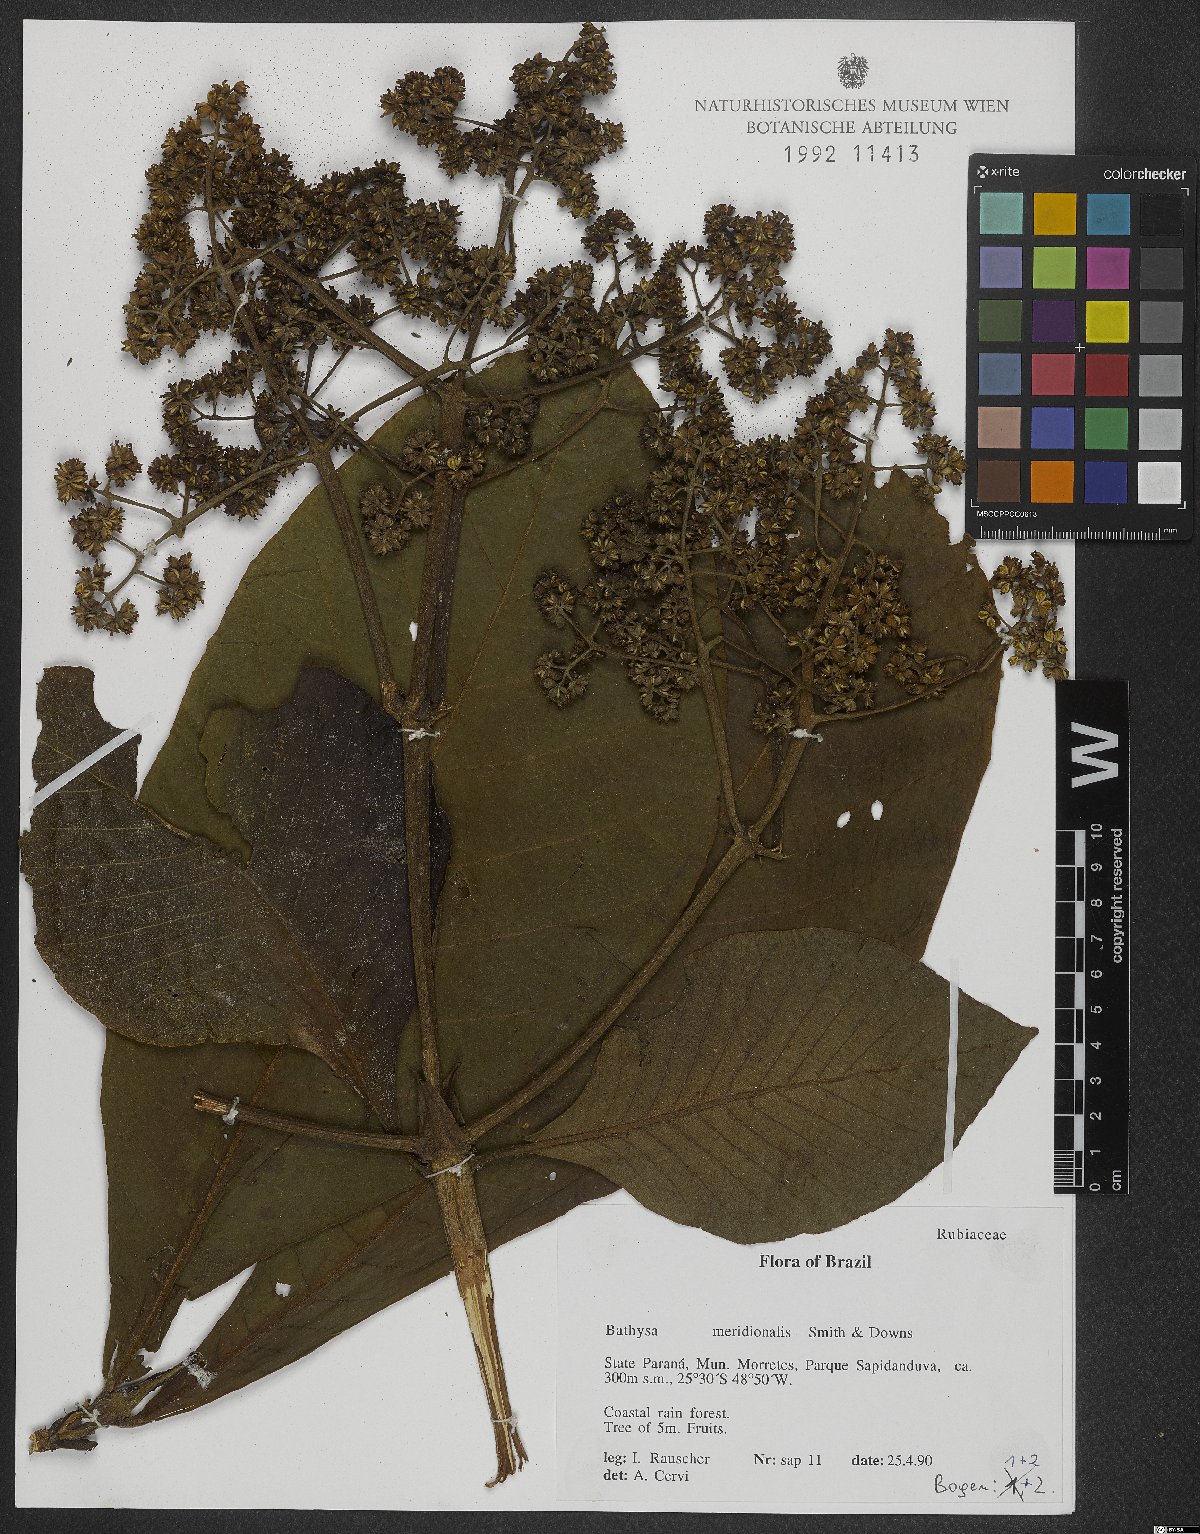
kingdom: Plantae
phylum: Tracheophyta
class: Magnoliopsida
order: Gentianales
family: Rubiaceae
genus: Bathysa
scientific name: Bathysa australis
